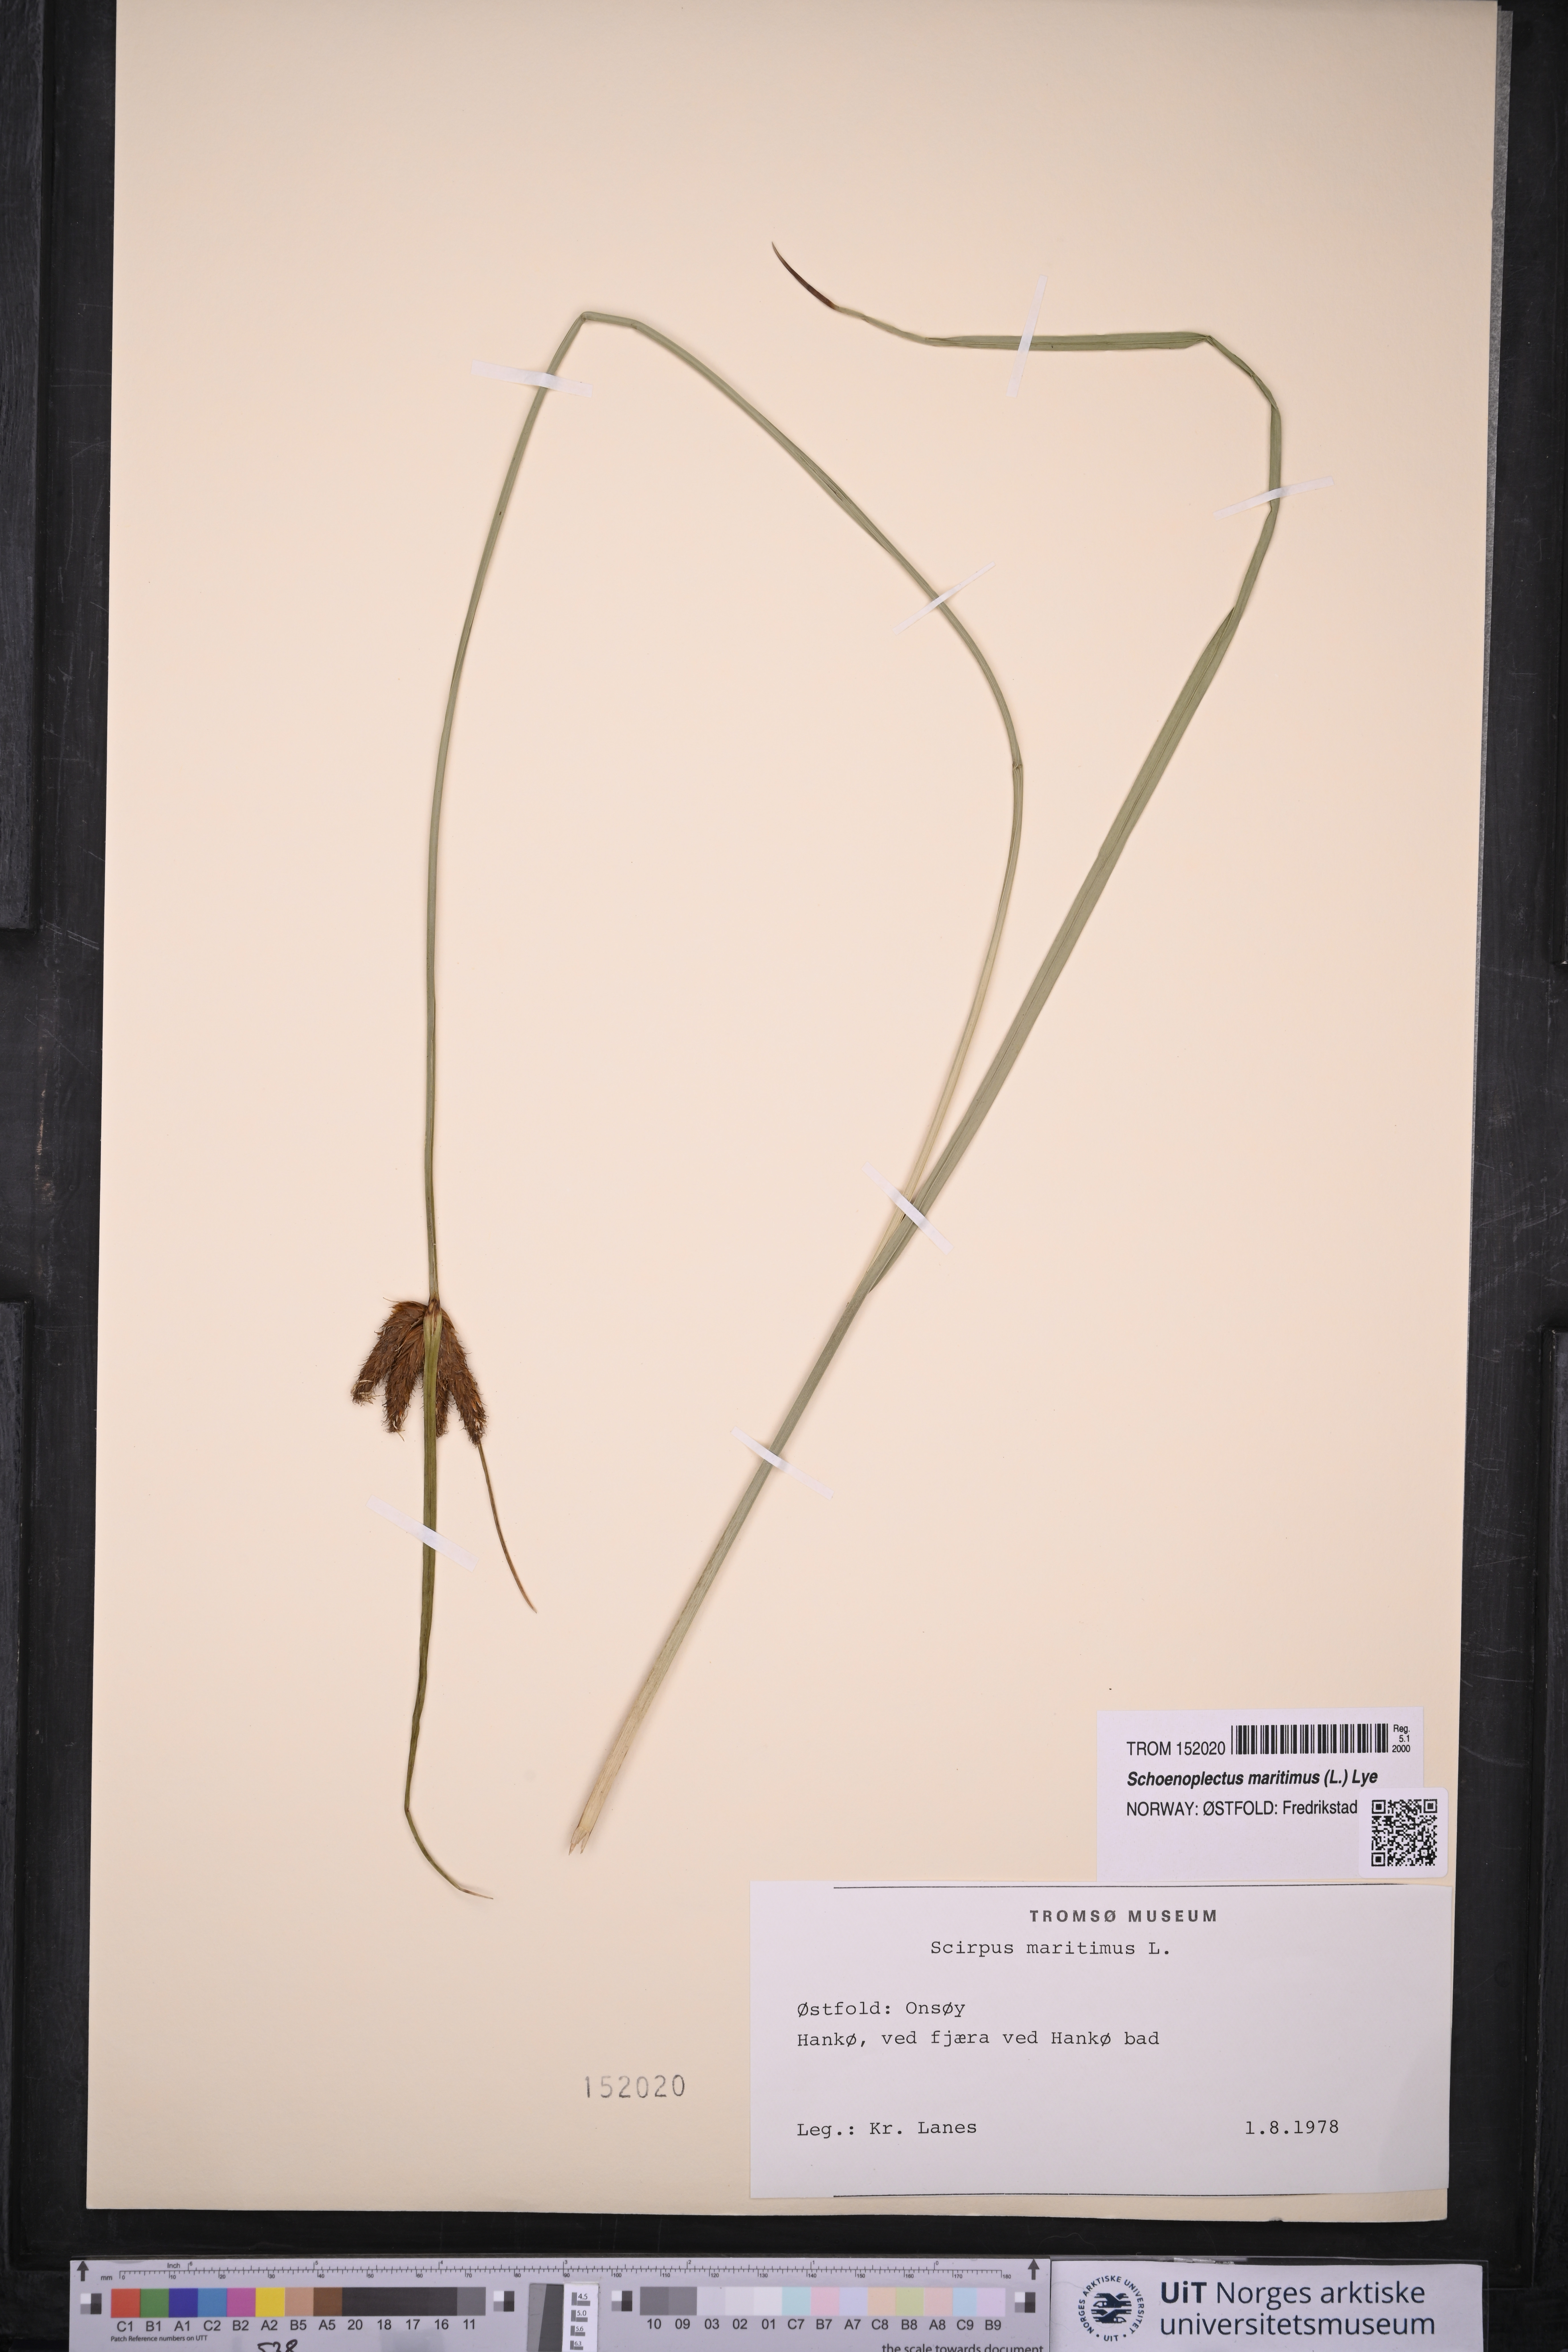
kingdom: Plantae
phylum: Tracheophyta
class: Liliopsida
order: Poales
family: Cyperaceae
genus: Bolboschoenus
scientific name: Bolboschoenus maritimus
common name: Sea club-rush
